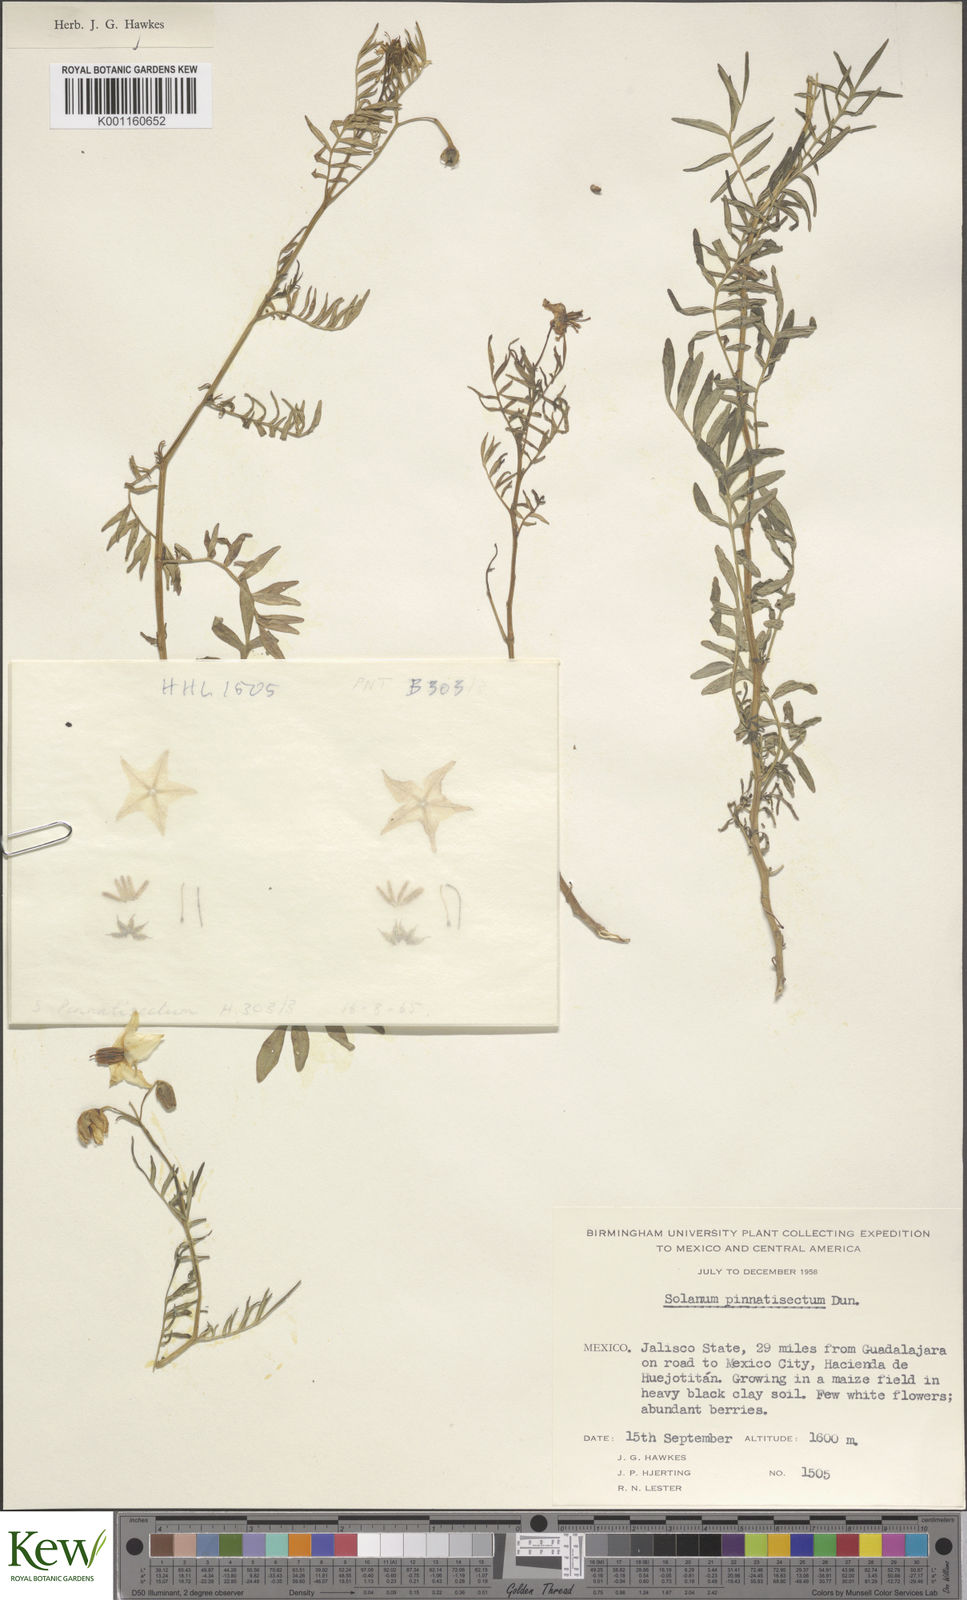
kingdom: Plantae
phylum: Tracheophyta
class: Magnoliopsida
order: Solanales
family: Solanaceae
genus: Solanum
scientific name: Solanum pinnatisectum
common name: Tansyleaf nightshade
